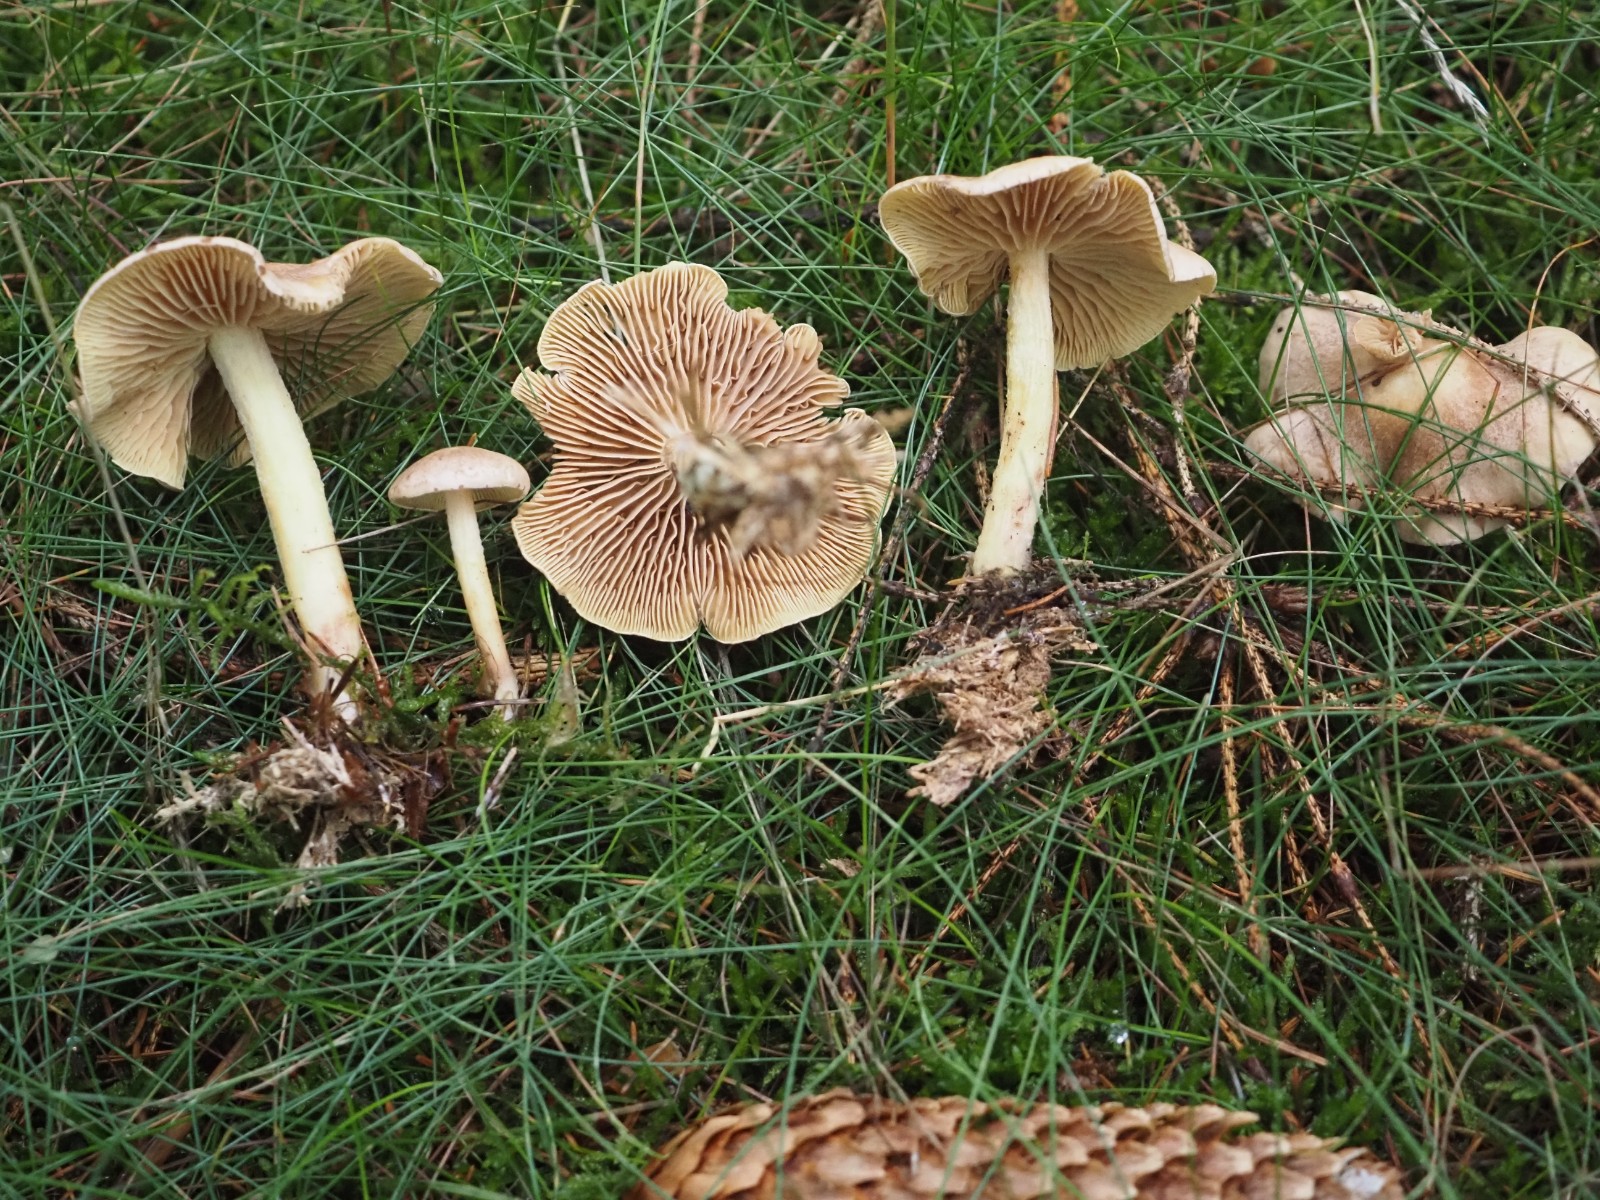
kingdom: Fungi
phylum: Basidiomycota
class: Agaricomycetes
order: Agaricales
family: Omphalotaceae
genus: Collybiopsis
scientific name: Collybiopsis peronata
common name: bestøvlet fladhat
